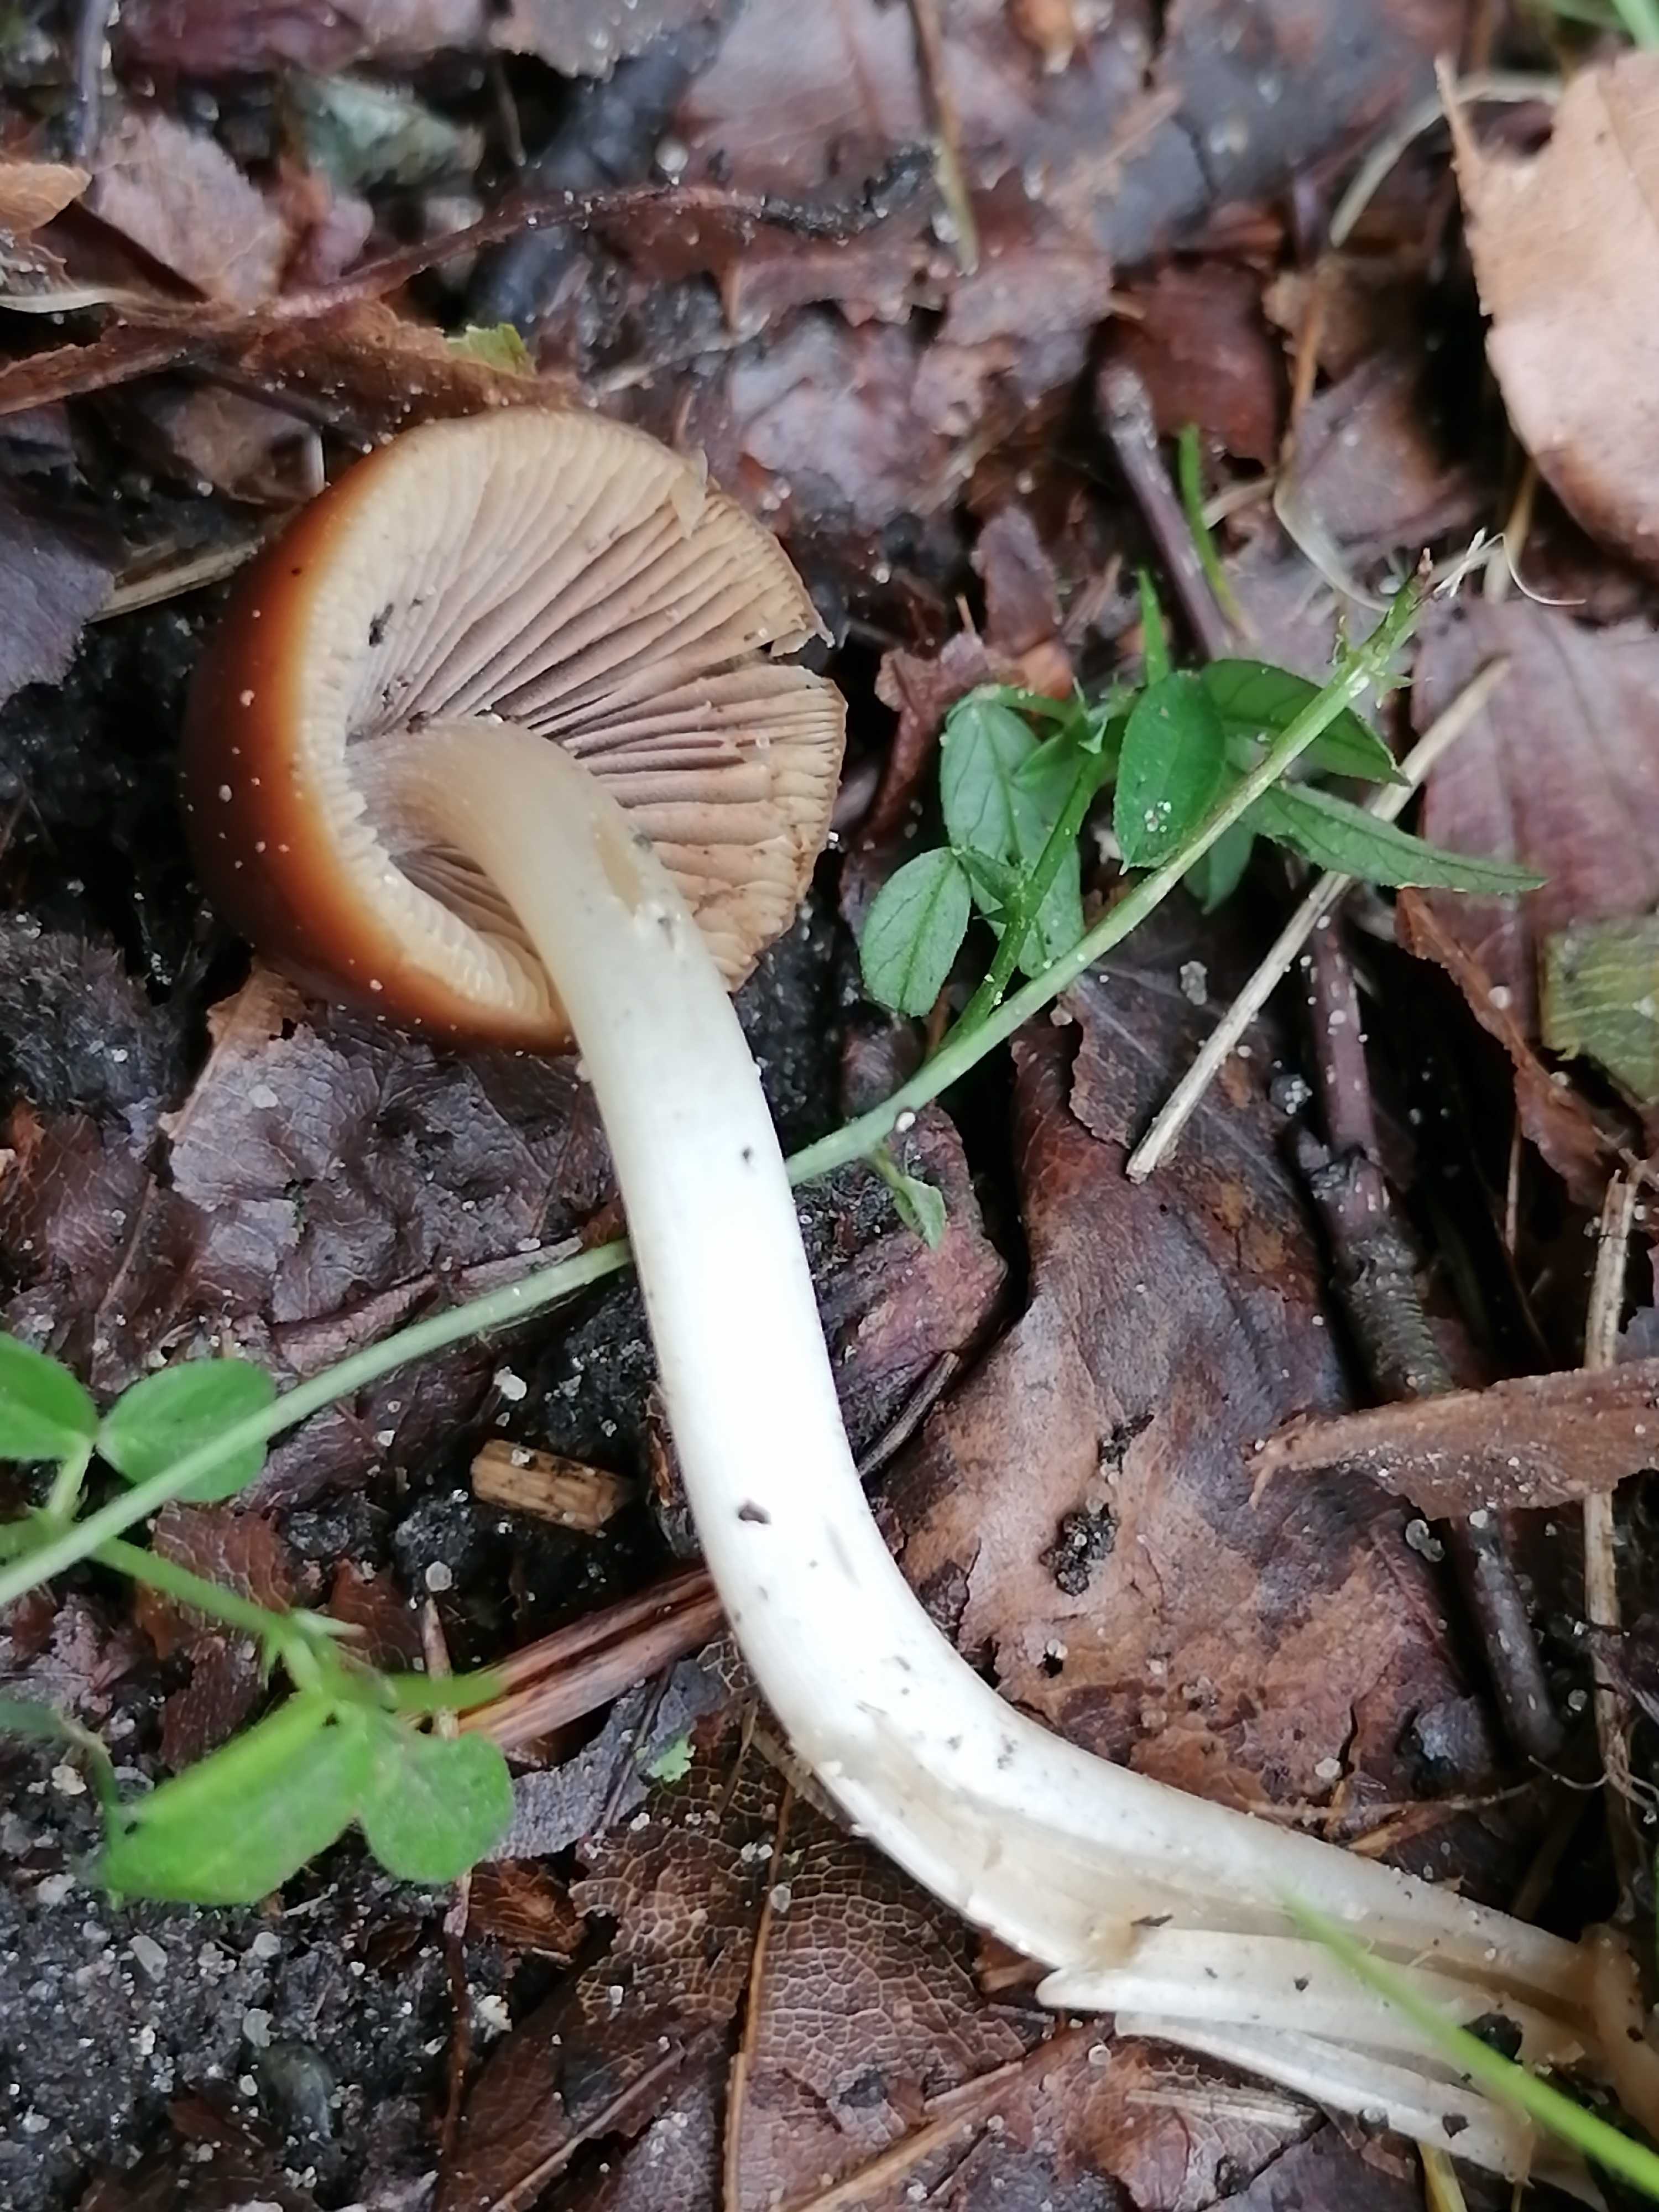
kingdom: Fungi
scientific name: Fungi
